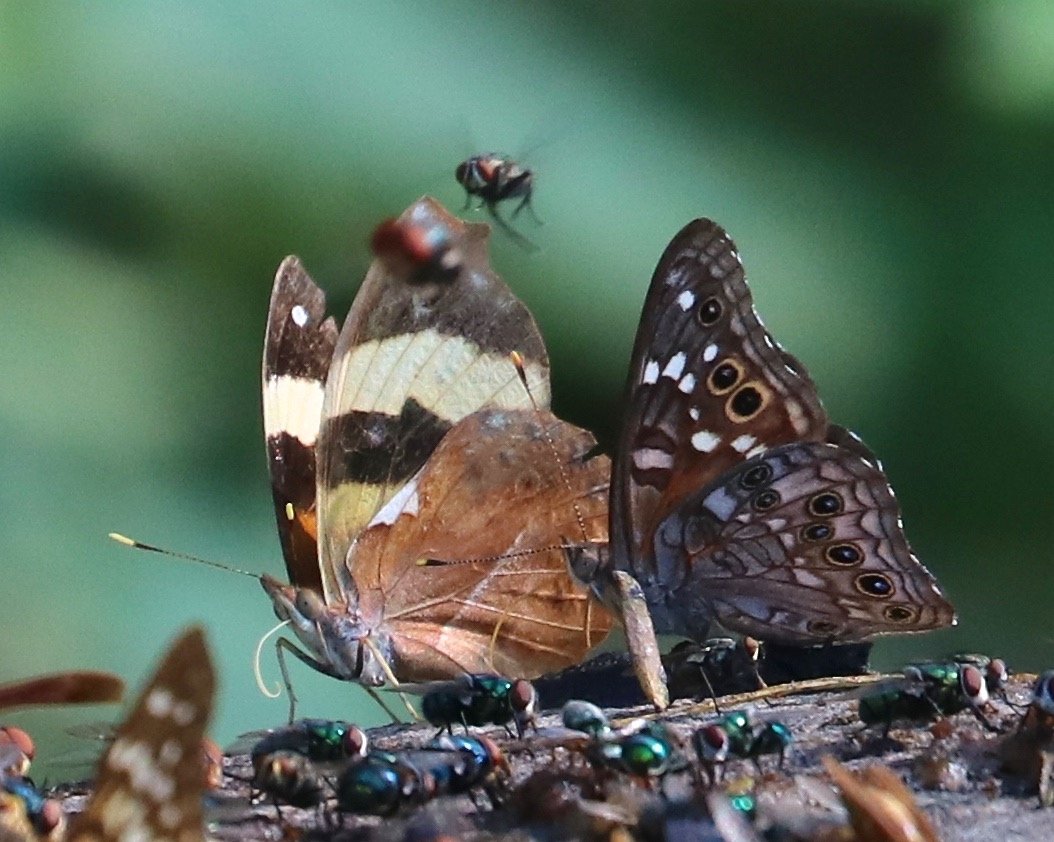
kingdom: Animalia
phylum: Arthropoda
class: Insecta
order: Lepidoptera
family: Nymphalidae
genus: Epiphile
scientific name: Epiphile adrasta
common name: Common Banner
